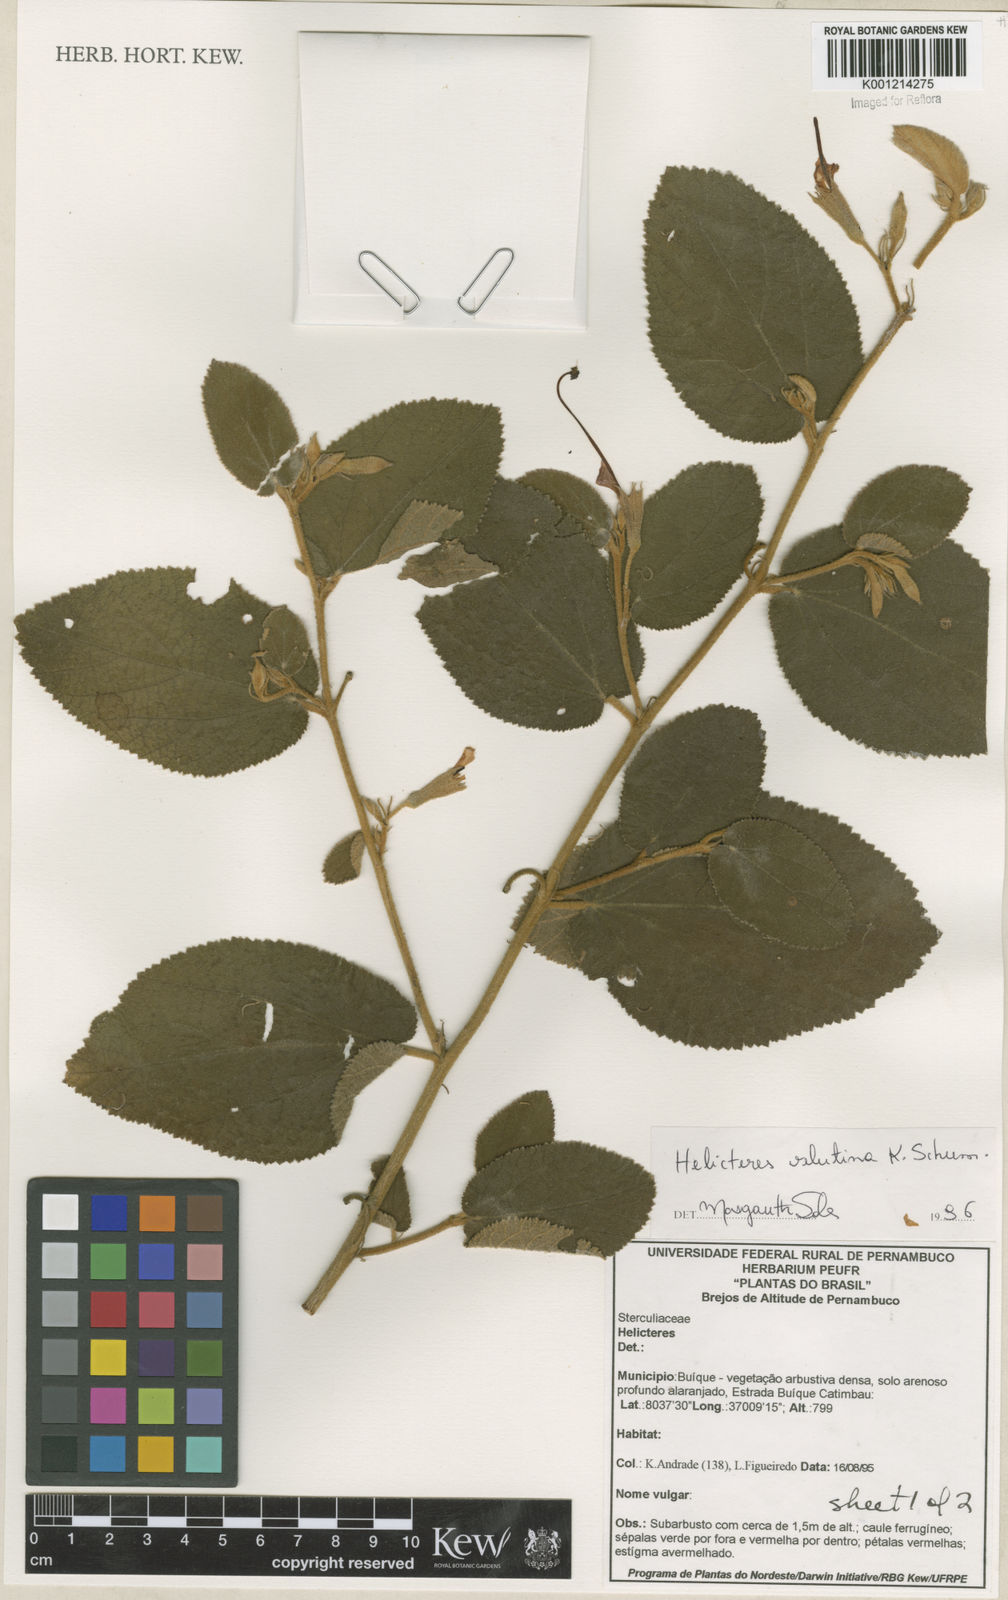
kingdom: Plantae
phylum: Tracheophyta
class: Magnoliopsida
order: Malvales
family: Malvaceae
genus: Helicteres
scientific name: Helicteres velutina
